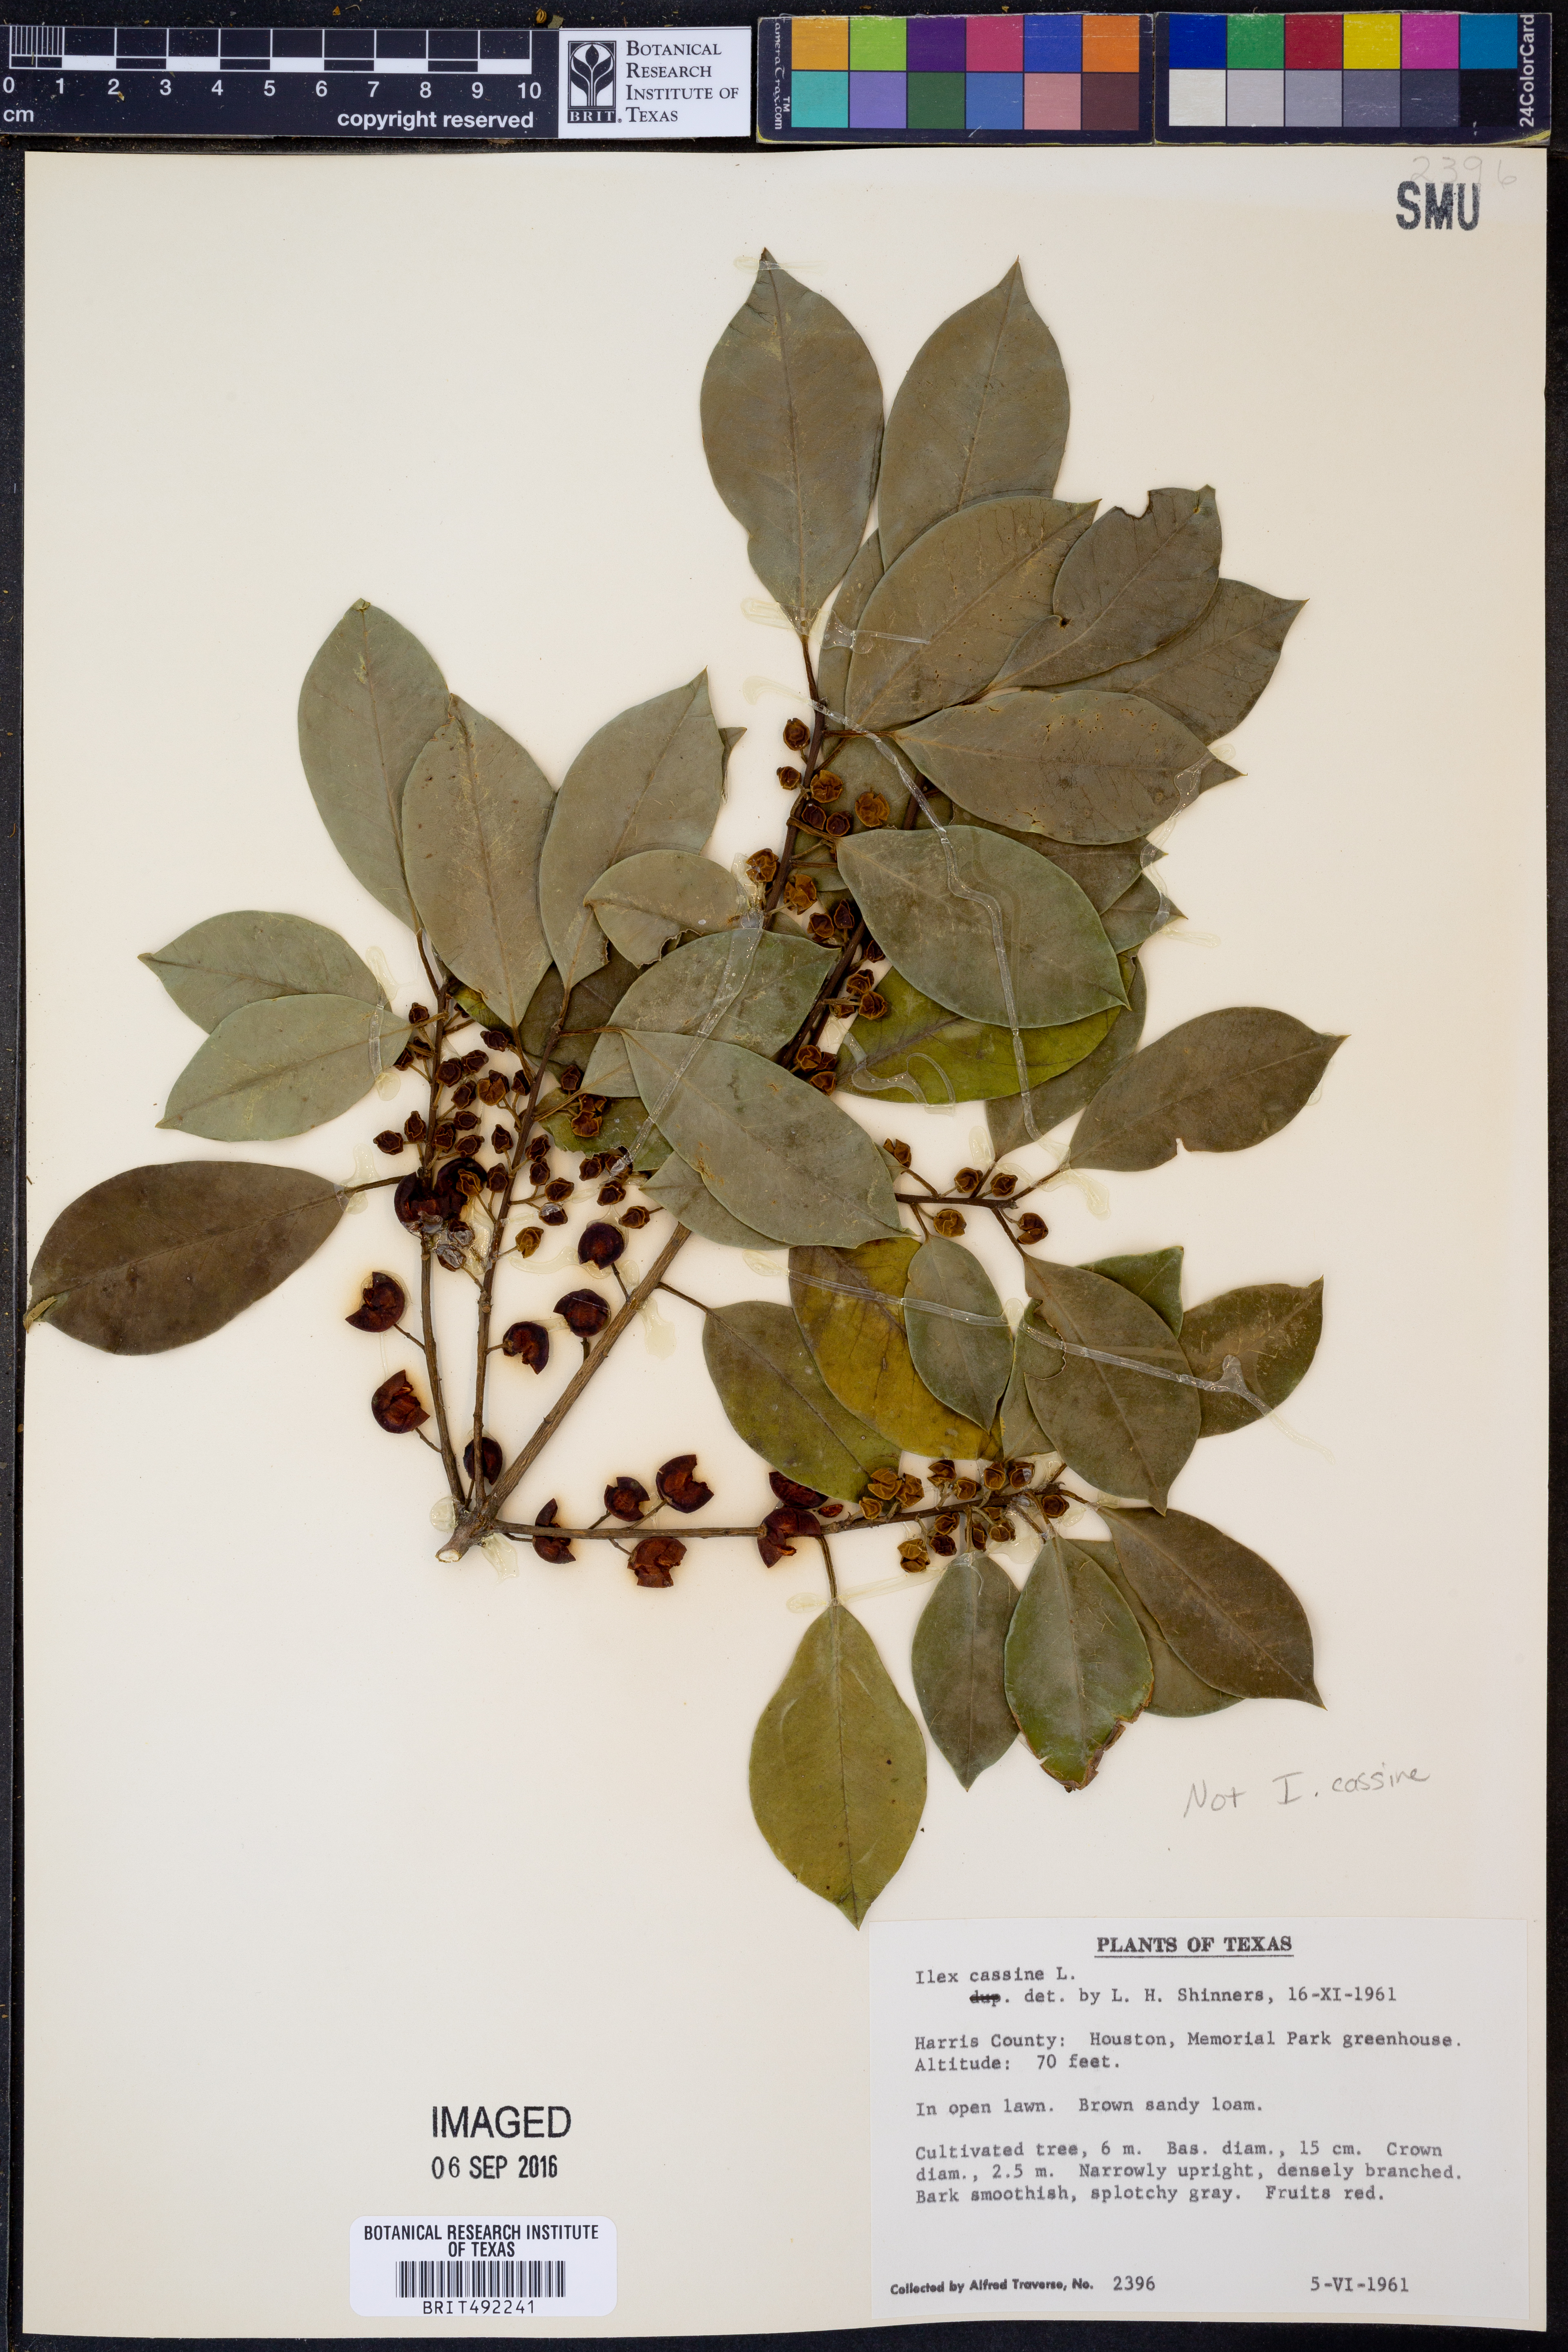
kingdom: Plantae
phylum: Tracheophyta
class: Magnoliopsida
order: Aquifoliales
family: Aquifoliaceae
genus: Ilex
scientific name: Ilex
